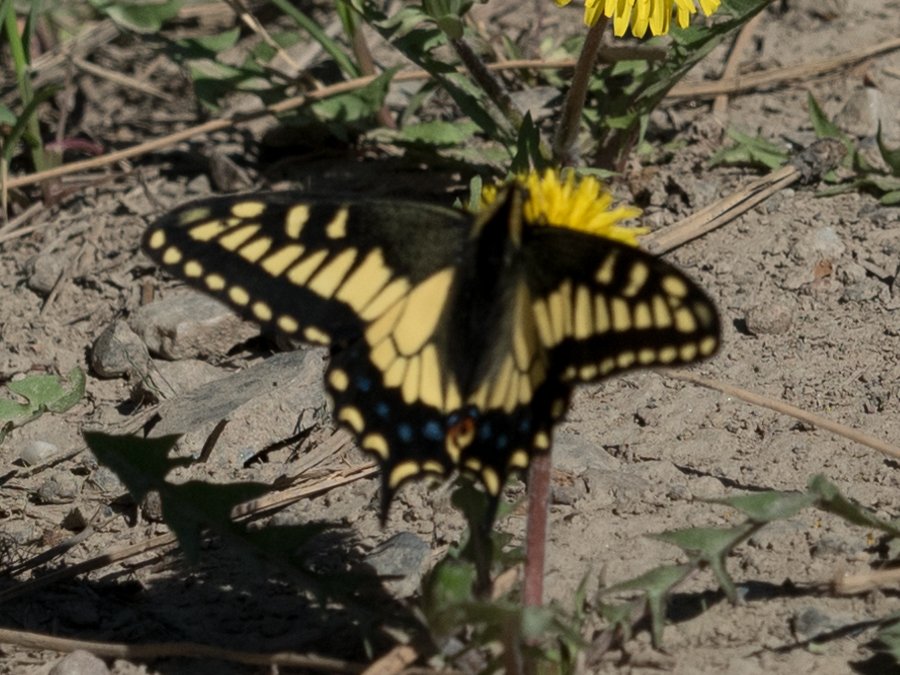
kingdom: Animalia
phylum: Arthropoda
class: Insecta
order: Lepidoptera
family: Papilionidae
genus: Papilio
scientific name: Papilio zelicaon
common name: Anise Swallowtail
